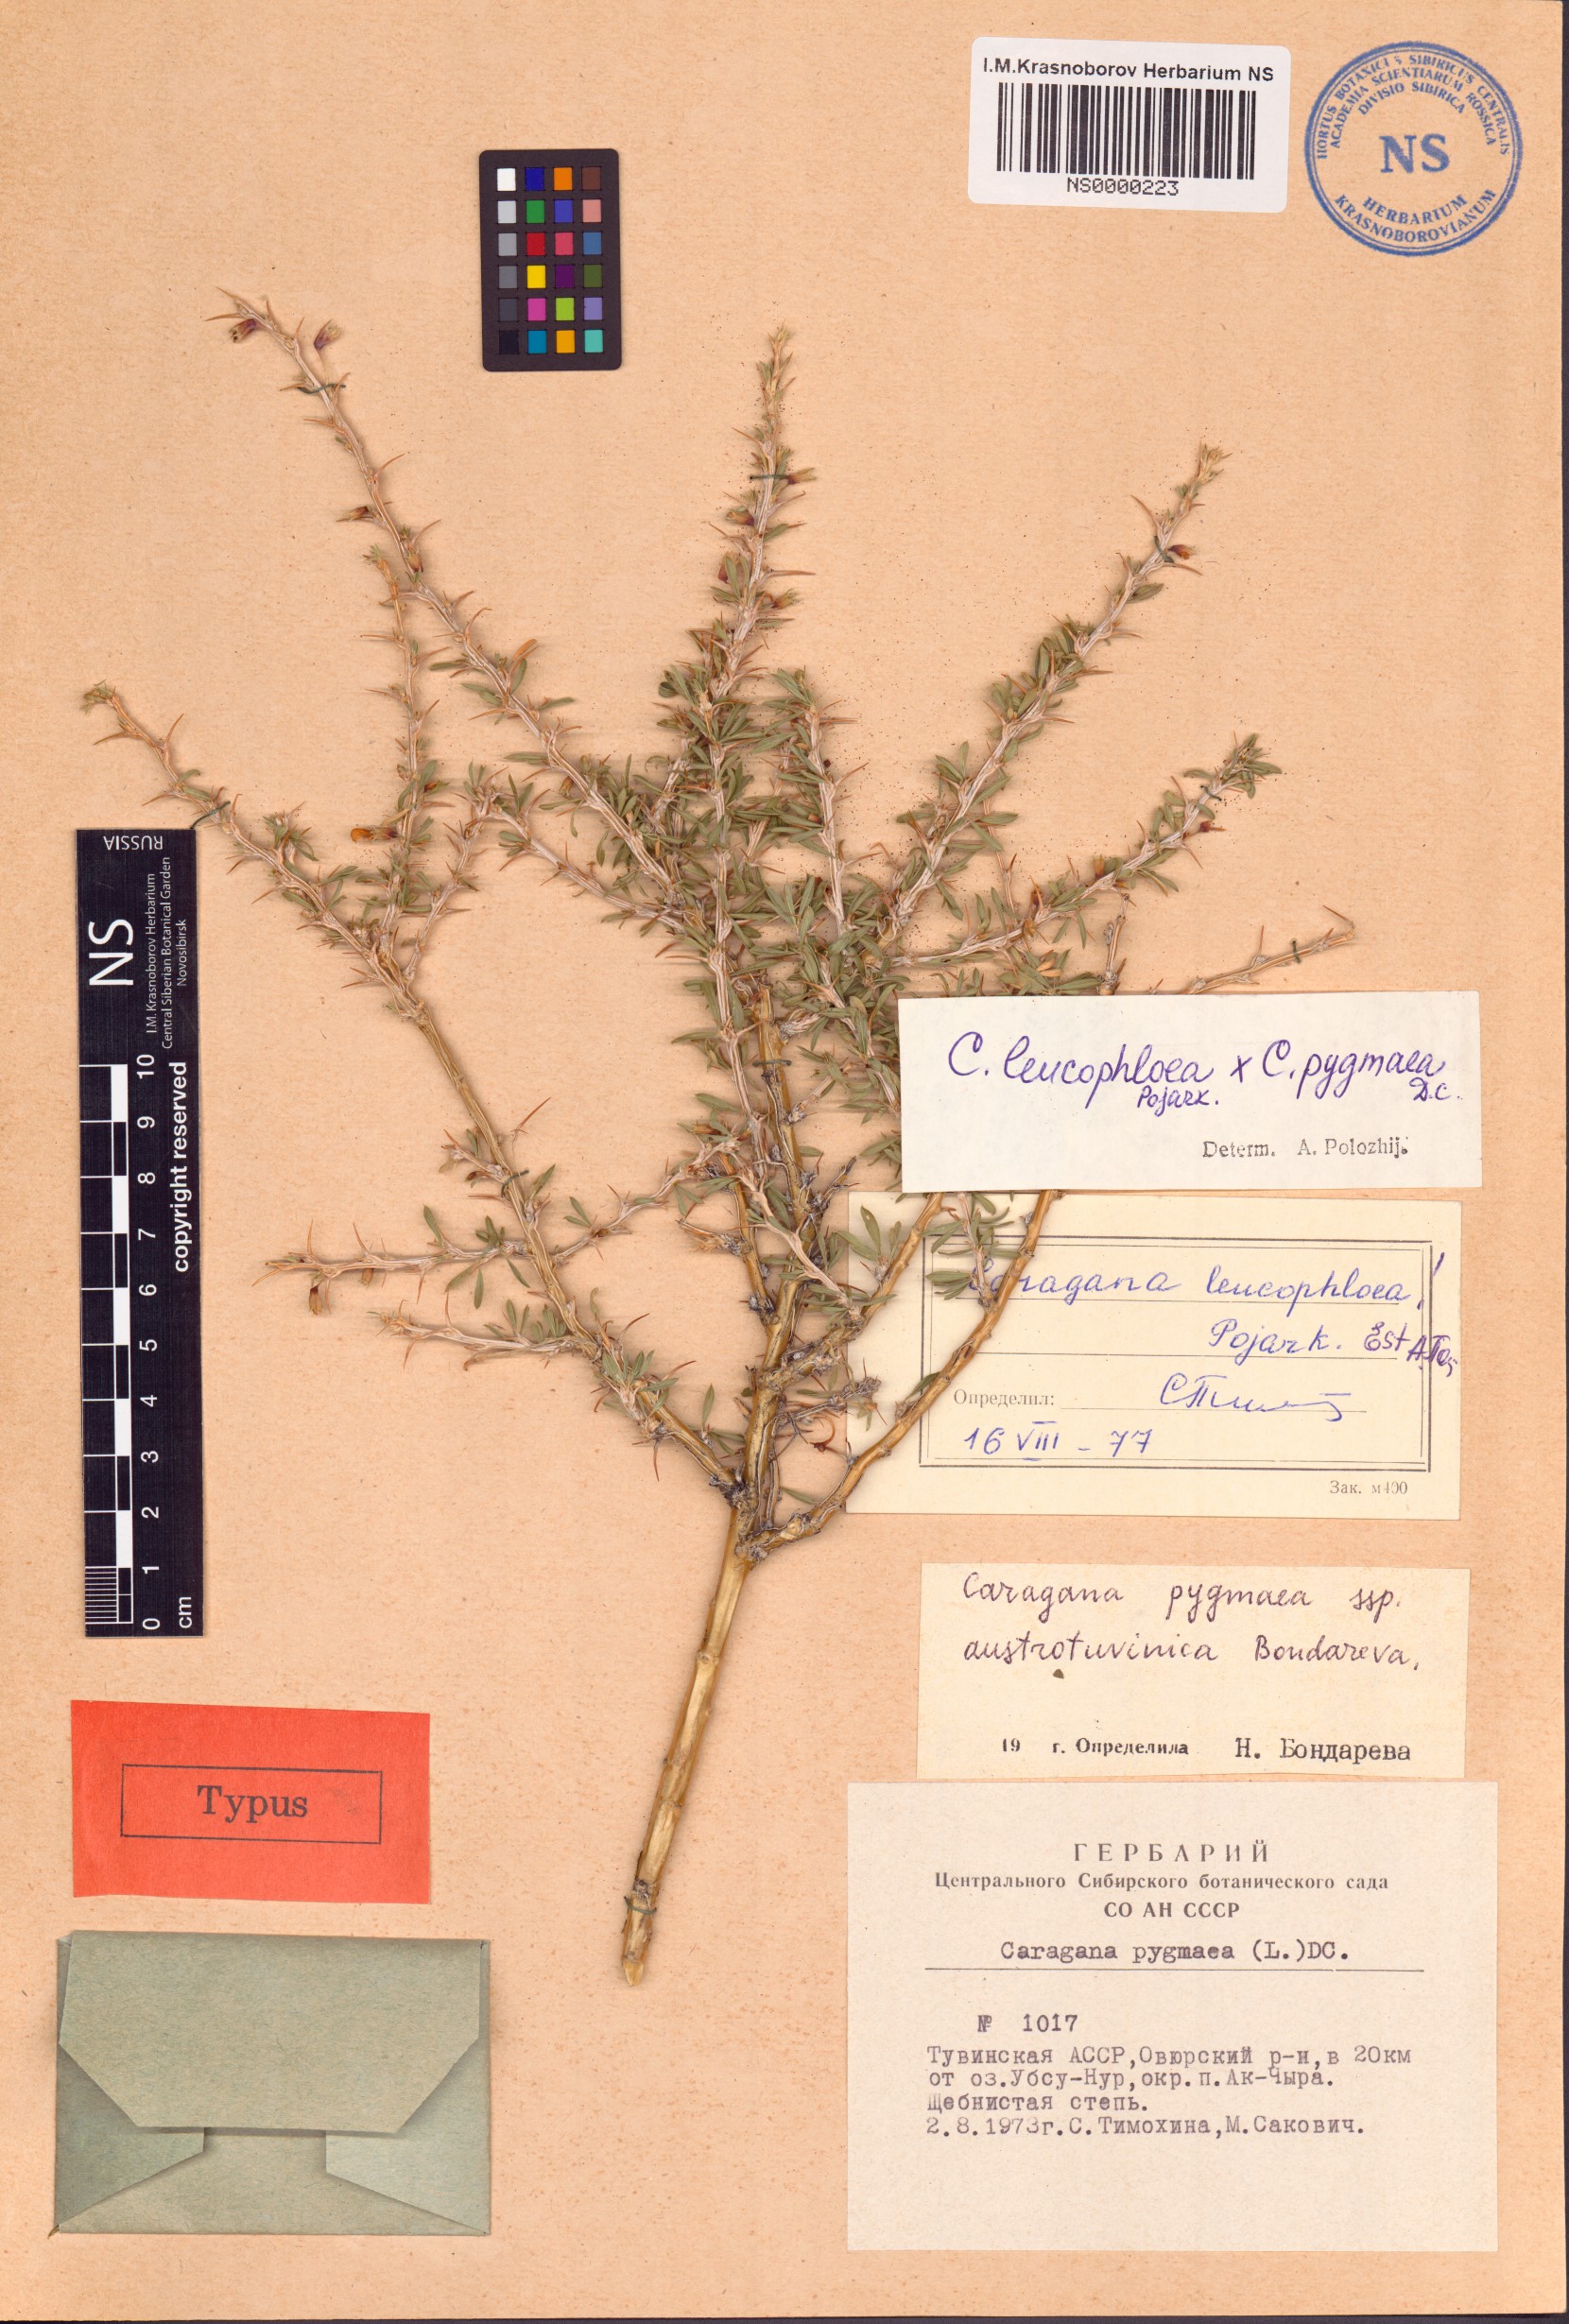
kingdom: Plantae
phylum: Tracheophyta
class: Magnoliopsida
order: Fabales
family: Fabaceae
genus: Caragana
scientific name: Caragana pygmaea
